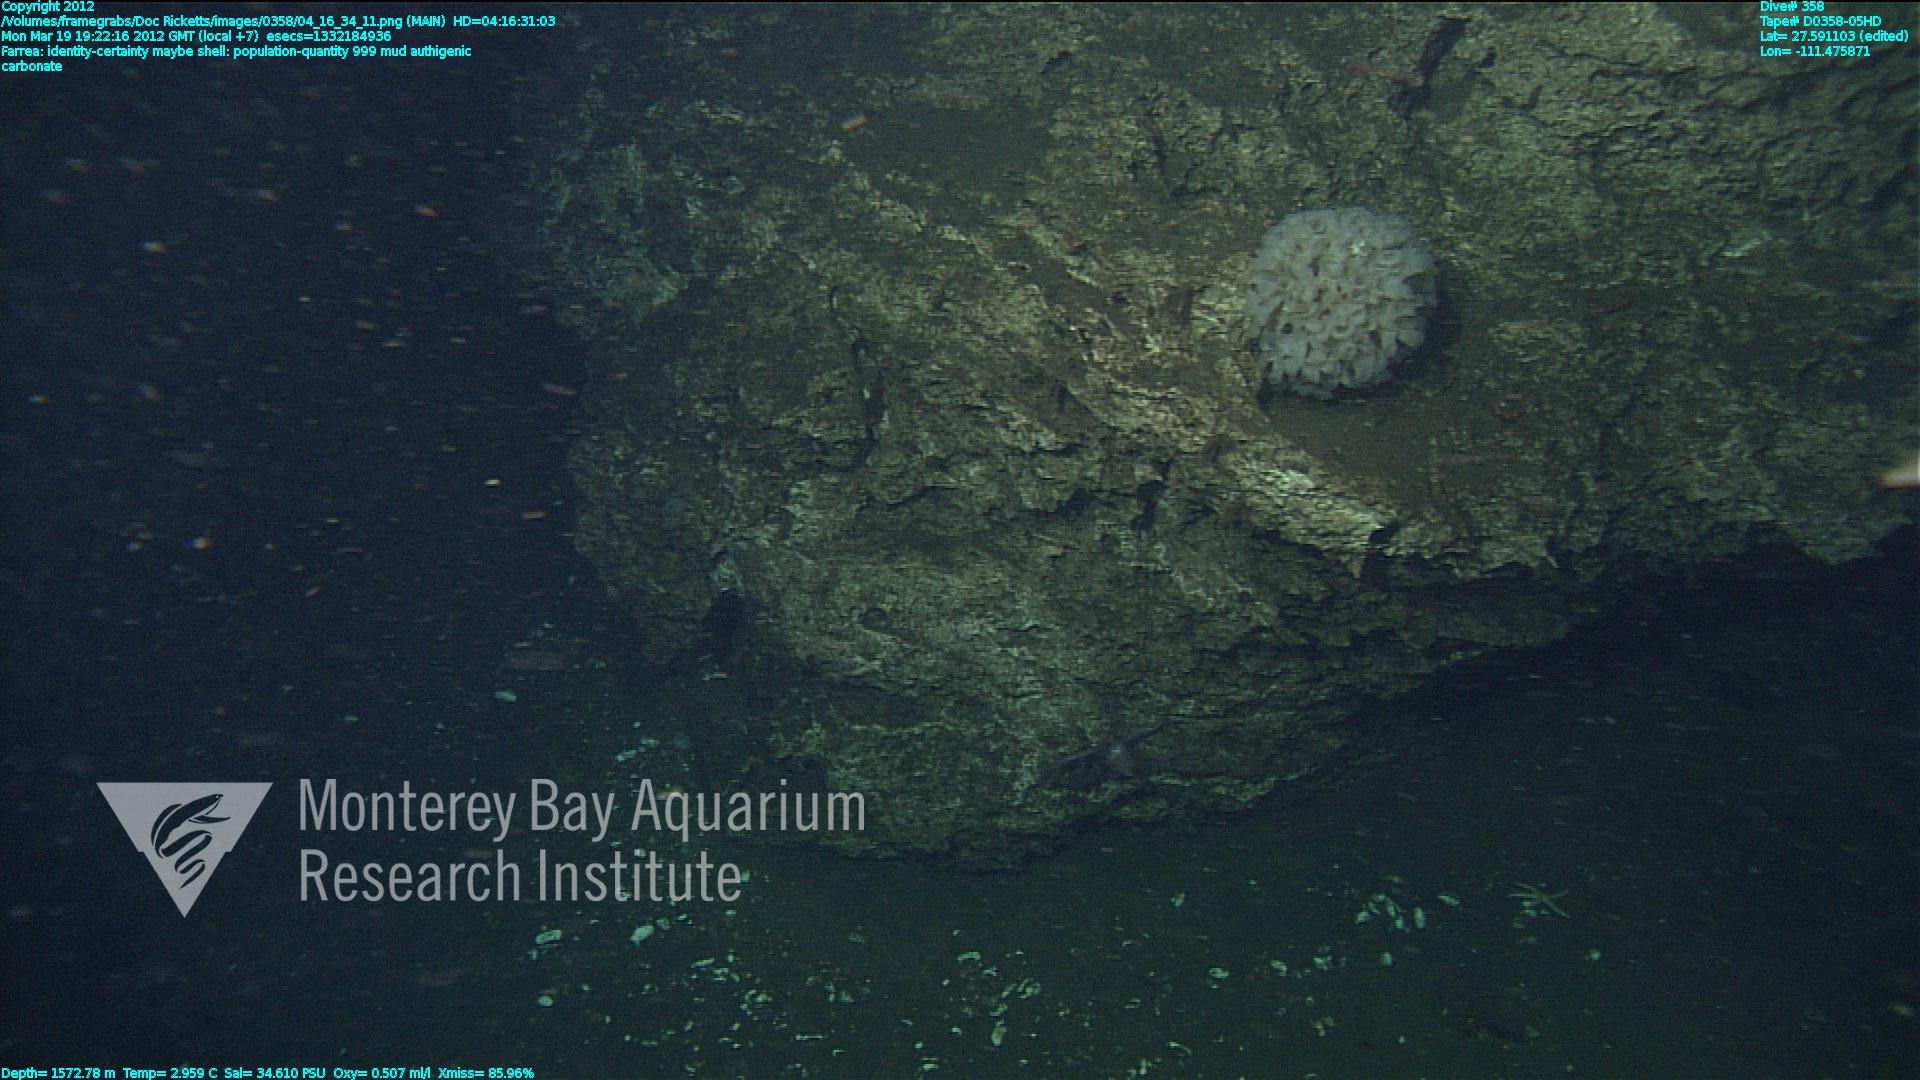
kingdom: Animalia
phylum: Porifera
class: Hexactinellida
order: Sceptrulophora
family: Farreidae
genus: Farrea
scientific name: Farrea
